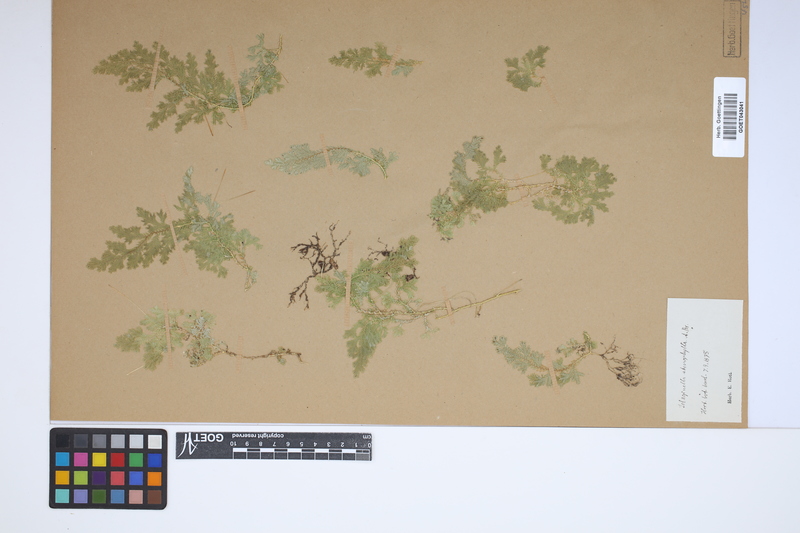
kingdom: Plantae
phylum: Tracheophyta
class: Lycopodiopsida
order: Selaginellales
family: Selaginellaceae
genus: Selaginella
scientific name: Selaginella stenophylla
